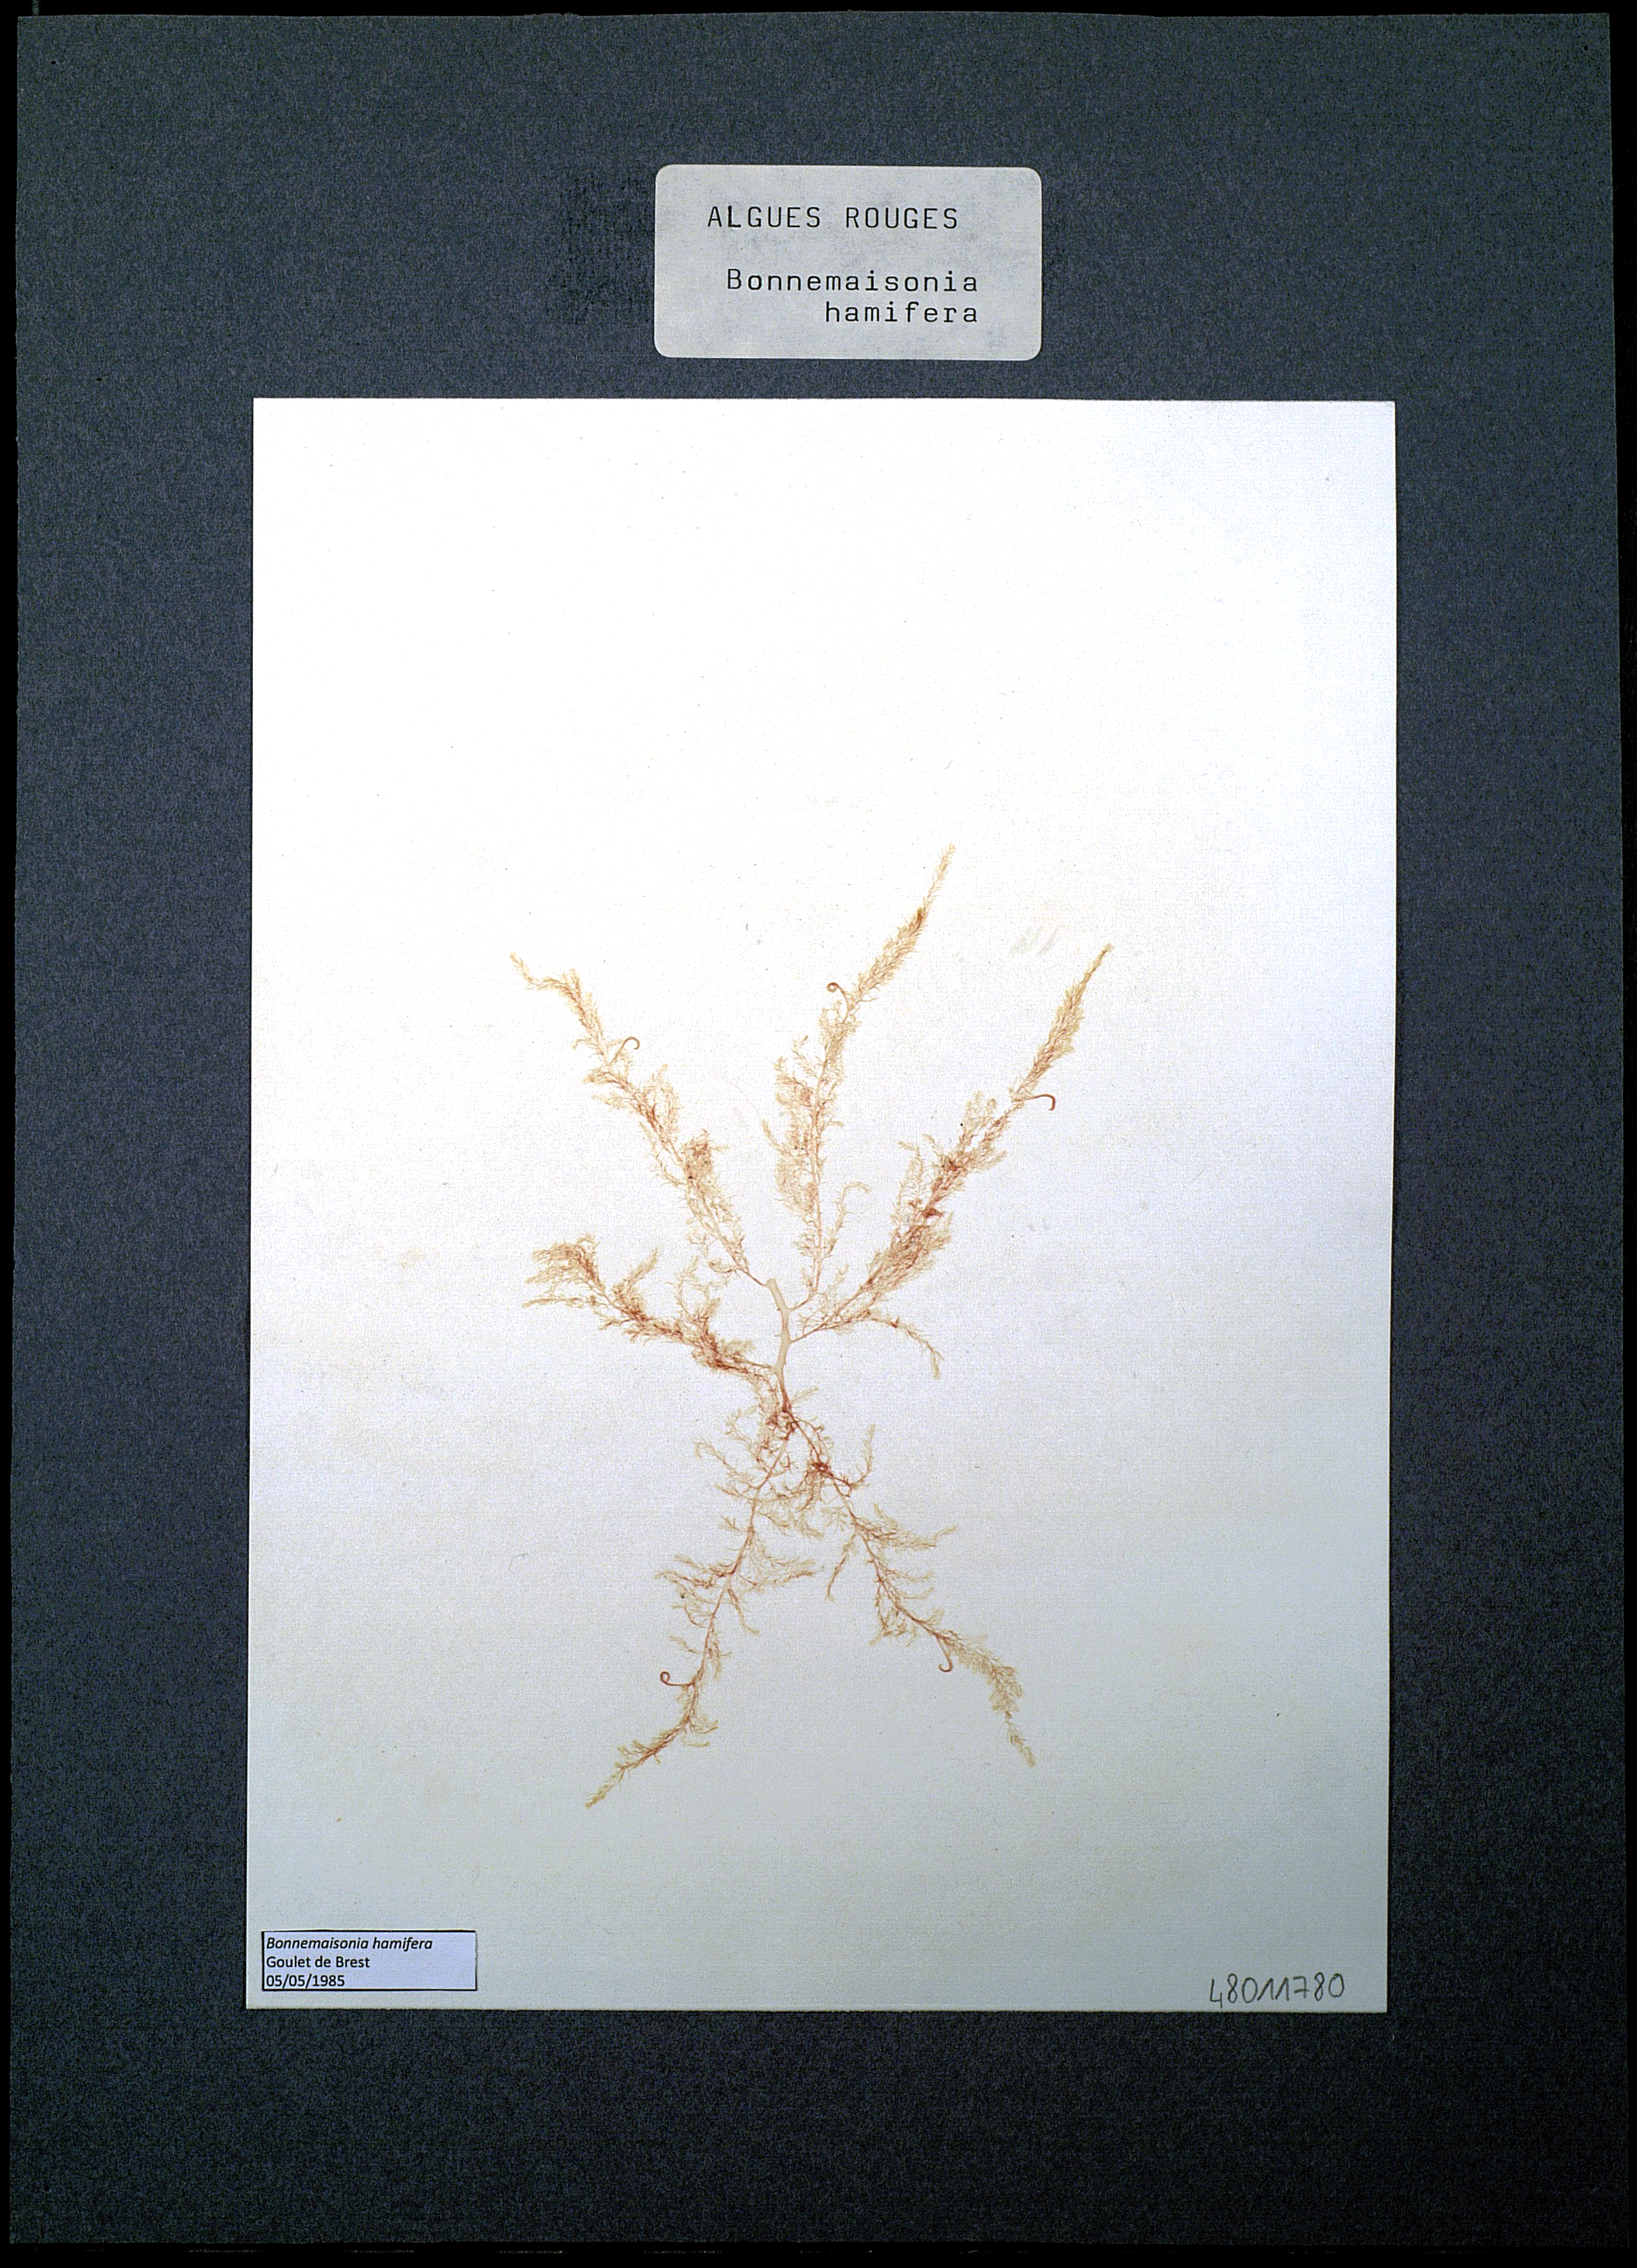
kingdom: Plantae
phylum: Rhodophyta
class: Florideophyceae
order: Bonnemaisoniales
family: Bonnemaisoniaceae
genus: Bonnemaisonia
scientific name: Bonnemaisonia hamifera
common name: Bonnemaison's hook weed
